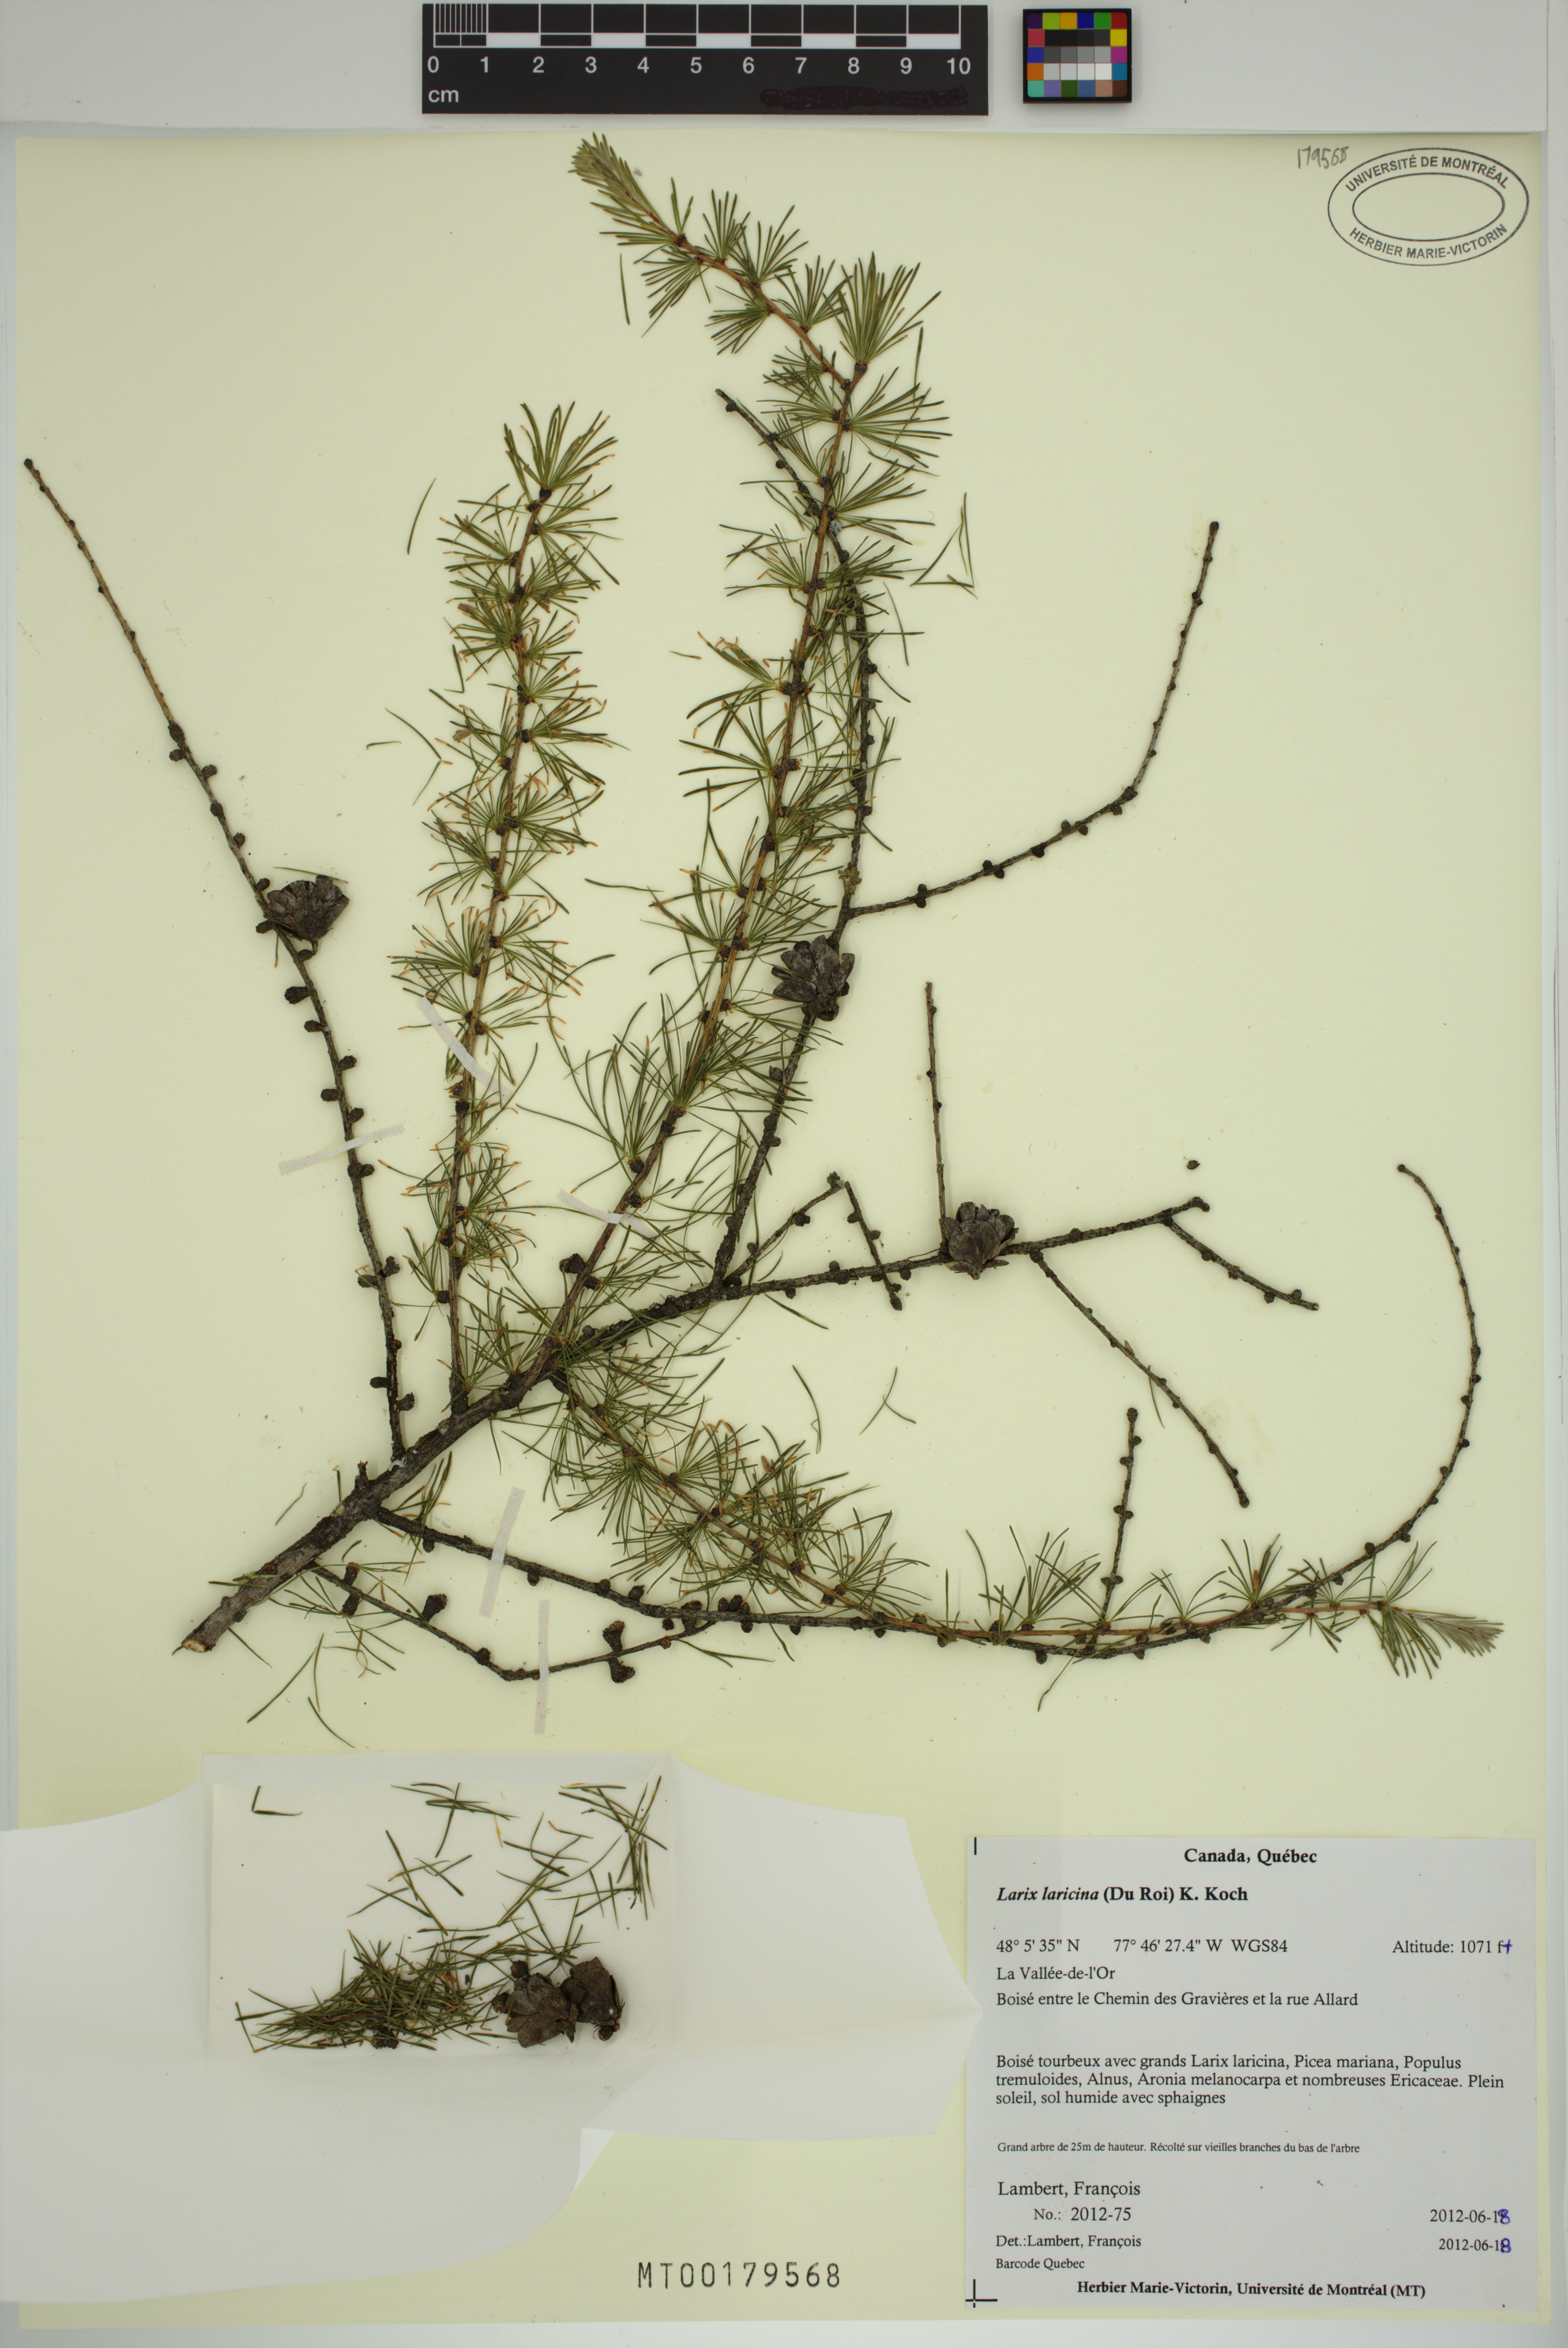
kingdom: Plantae
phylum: Tracheophyta
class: Pinopsida
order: Pinales
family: Pinaceae
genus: Larix
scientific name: Larix laricina
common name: American larch
